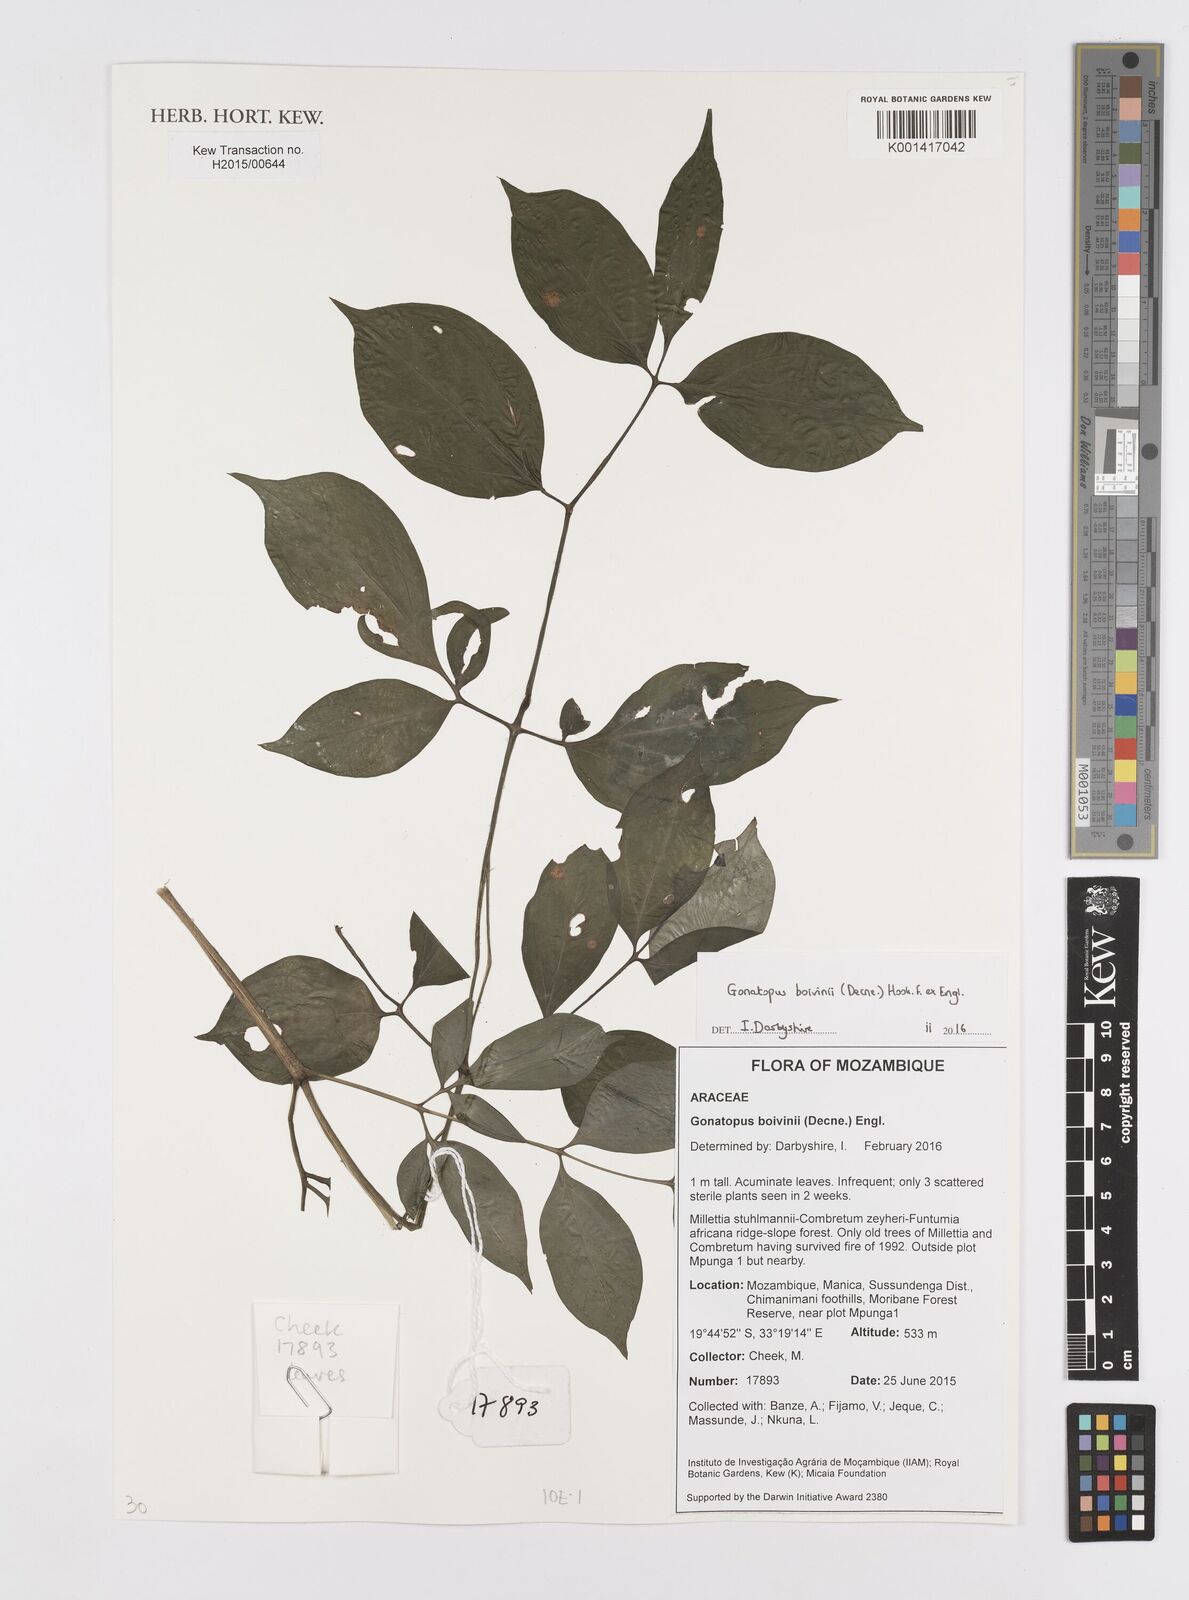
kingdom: Plantae
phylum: Tracheophyta
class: Liliopsida
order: Alismatales
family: Araceae
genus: Gonatopus
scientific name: Gonatopus boivinii
